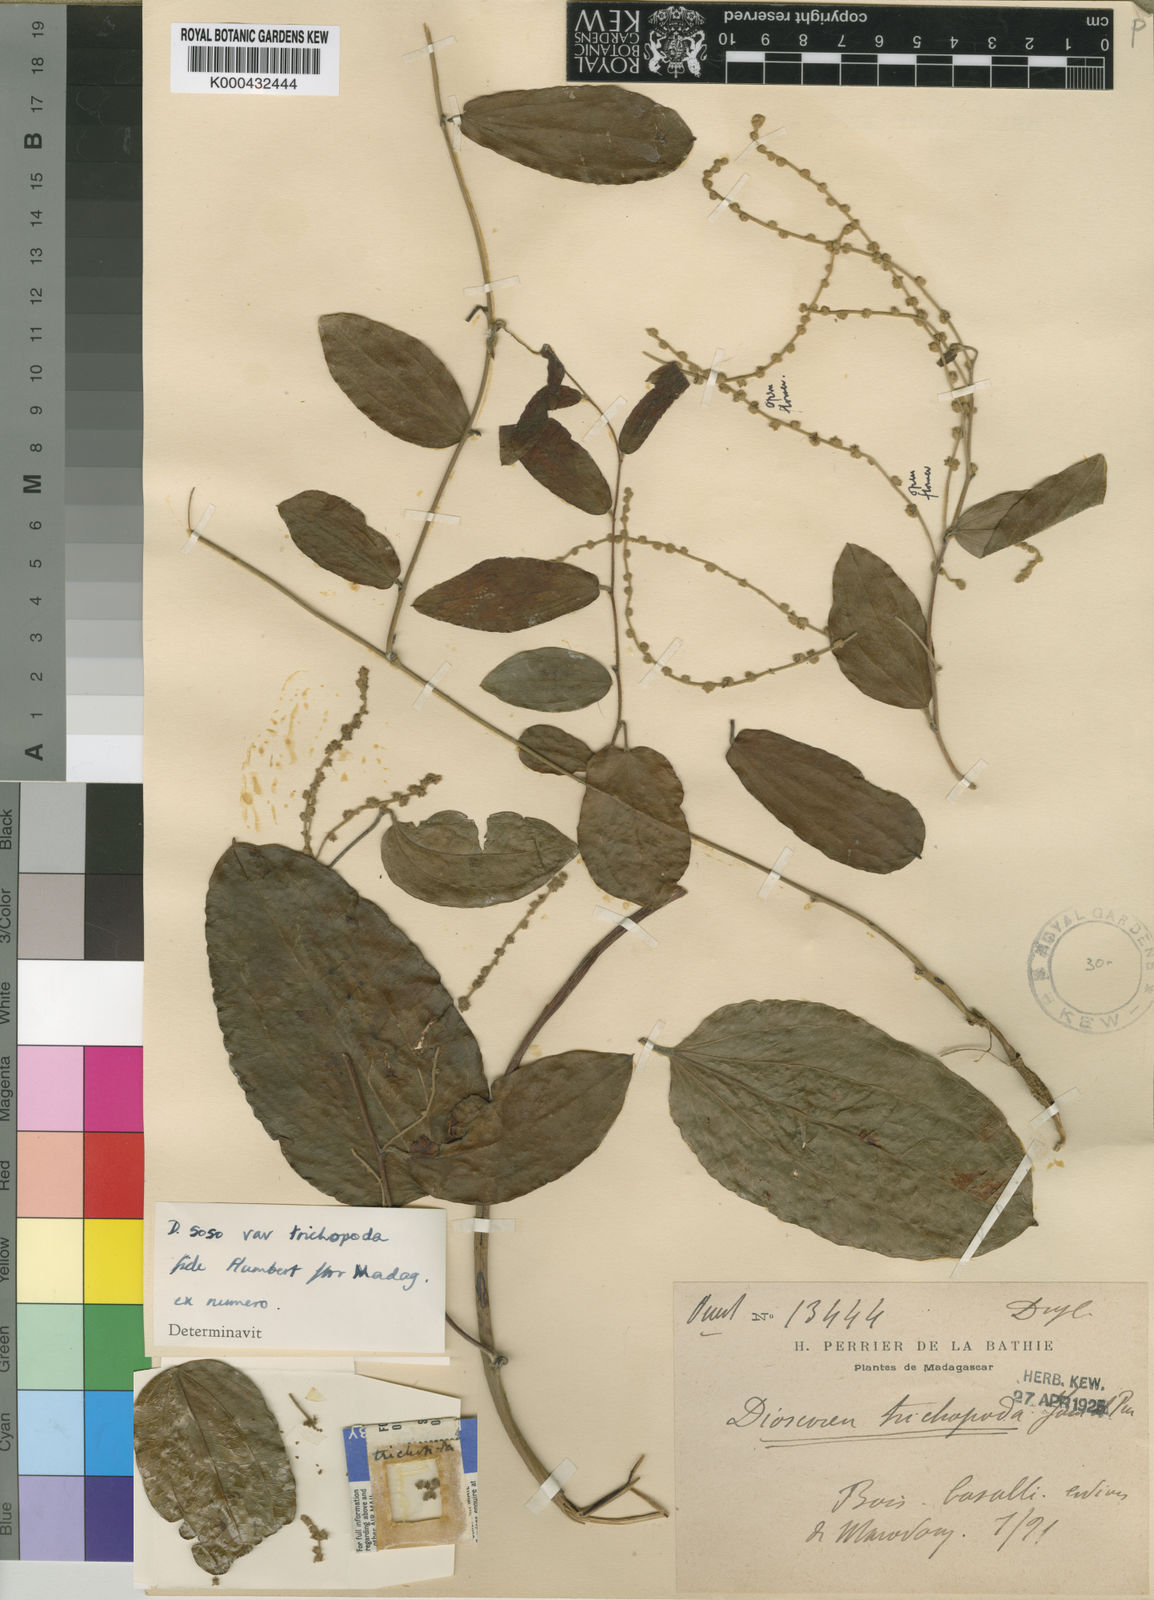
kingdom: Plantae
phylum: Tracheophyta
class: Liliopsida
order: Dioscoreales
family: Dioscoreaceae
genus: Dioscorea
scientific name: Dioscorea soso
